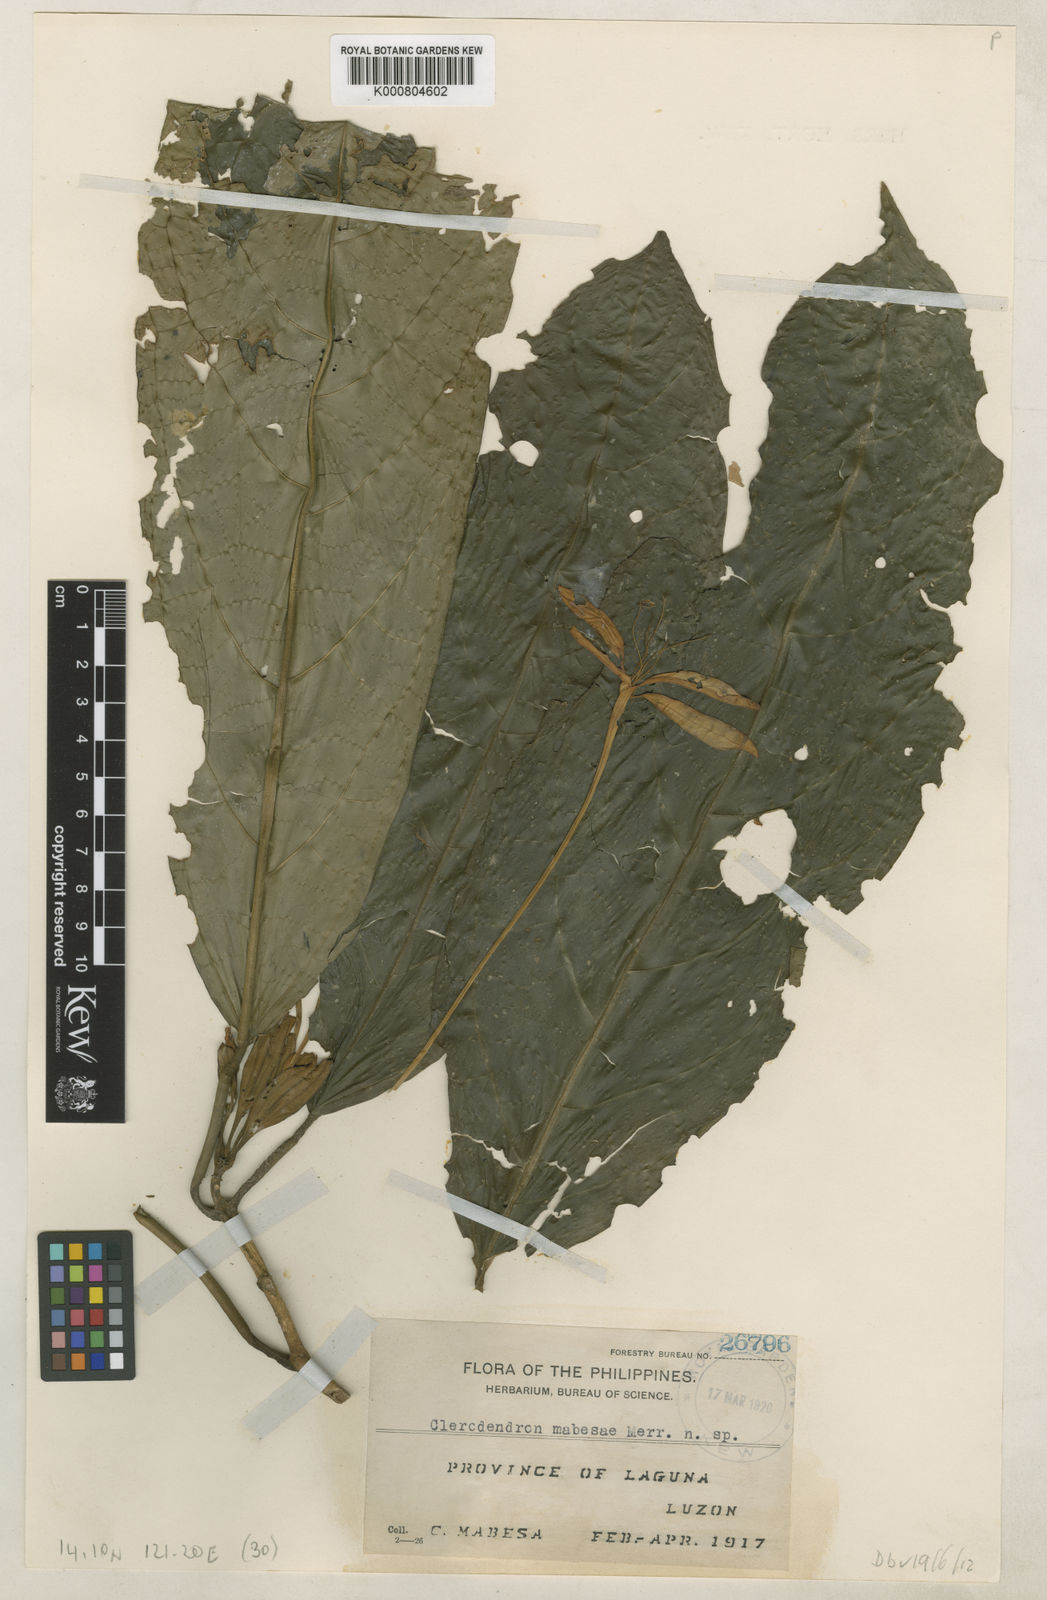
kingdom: Plantae
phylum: Tracheophyta
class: Magnoliopsida
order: Lamiales
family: Lamiaceae
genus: Clerodendrum
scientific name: Clerodendrum minahassae
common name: Starfish clerodendrum
